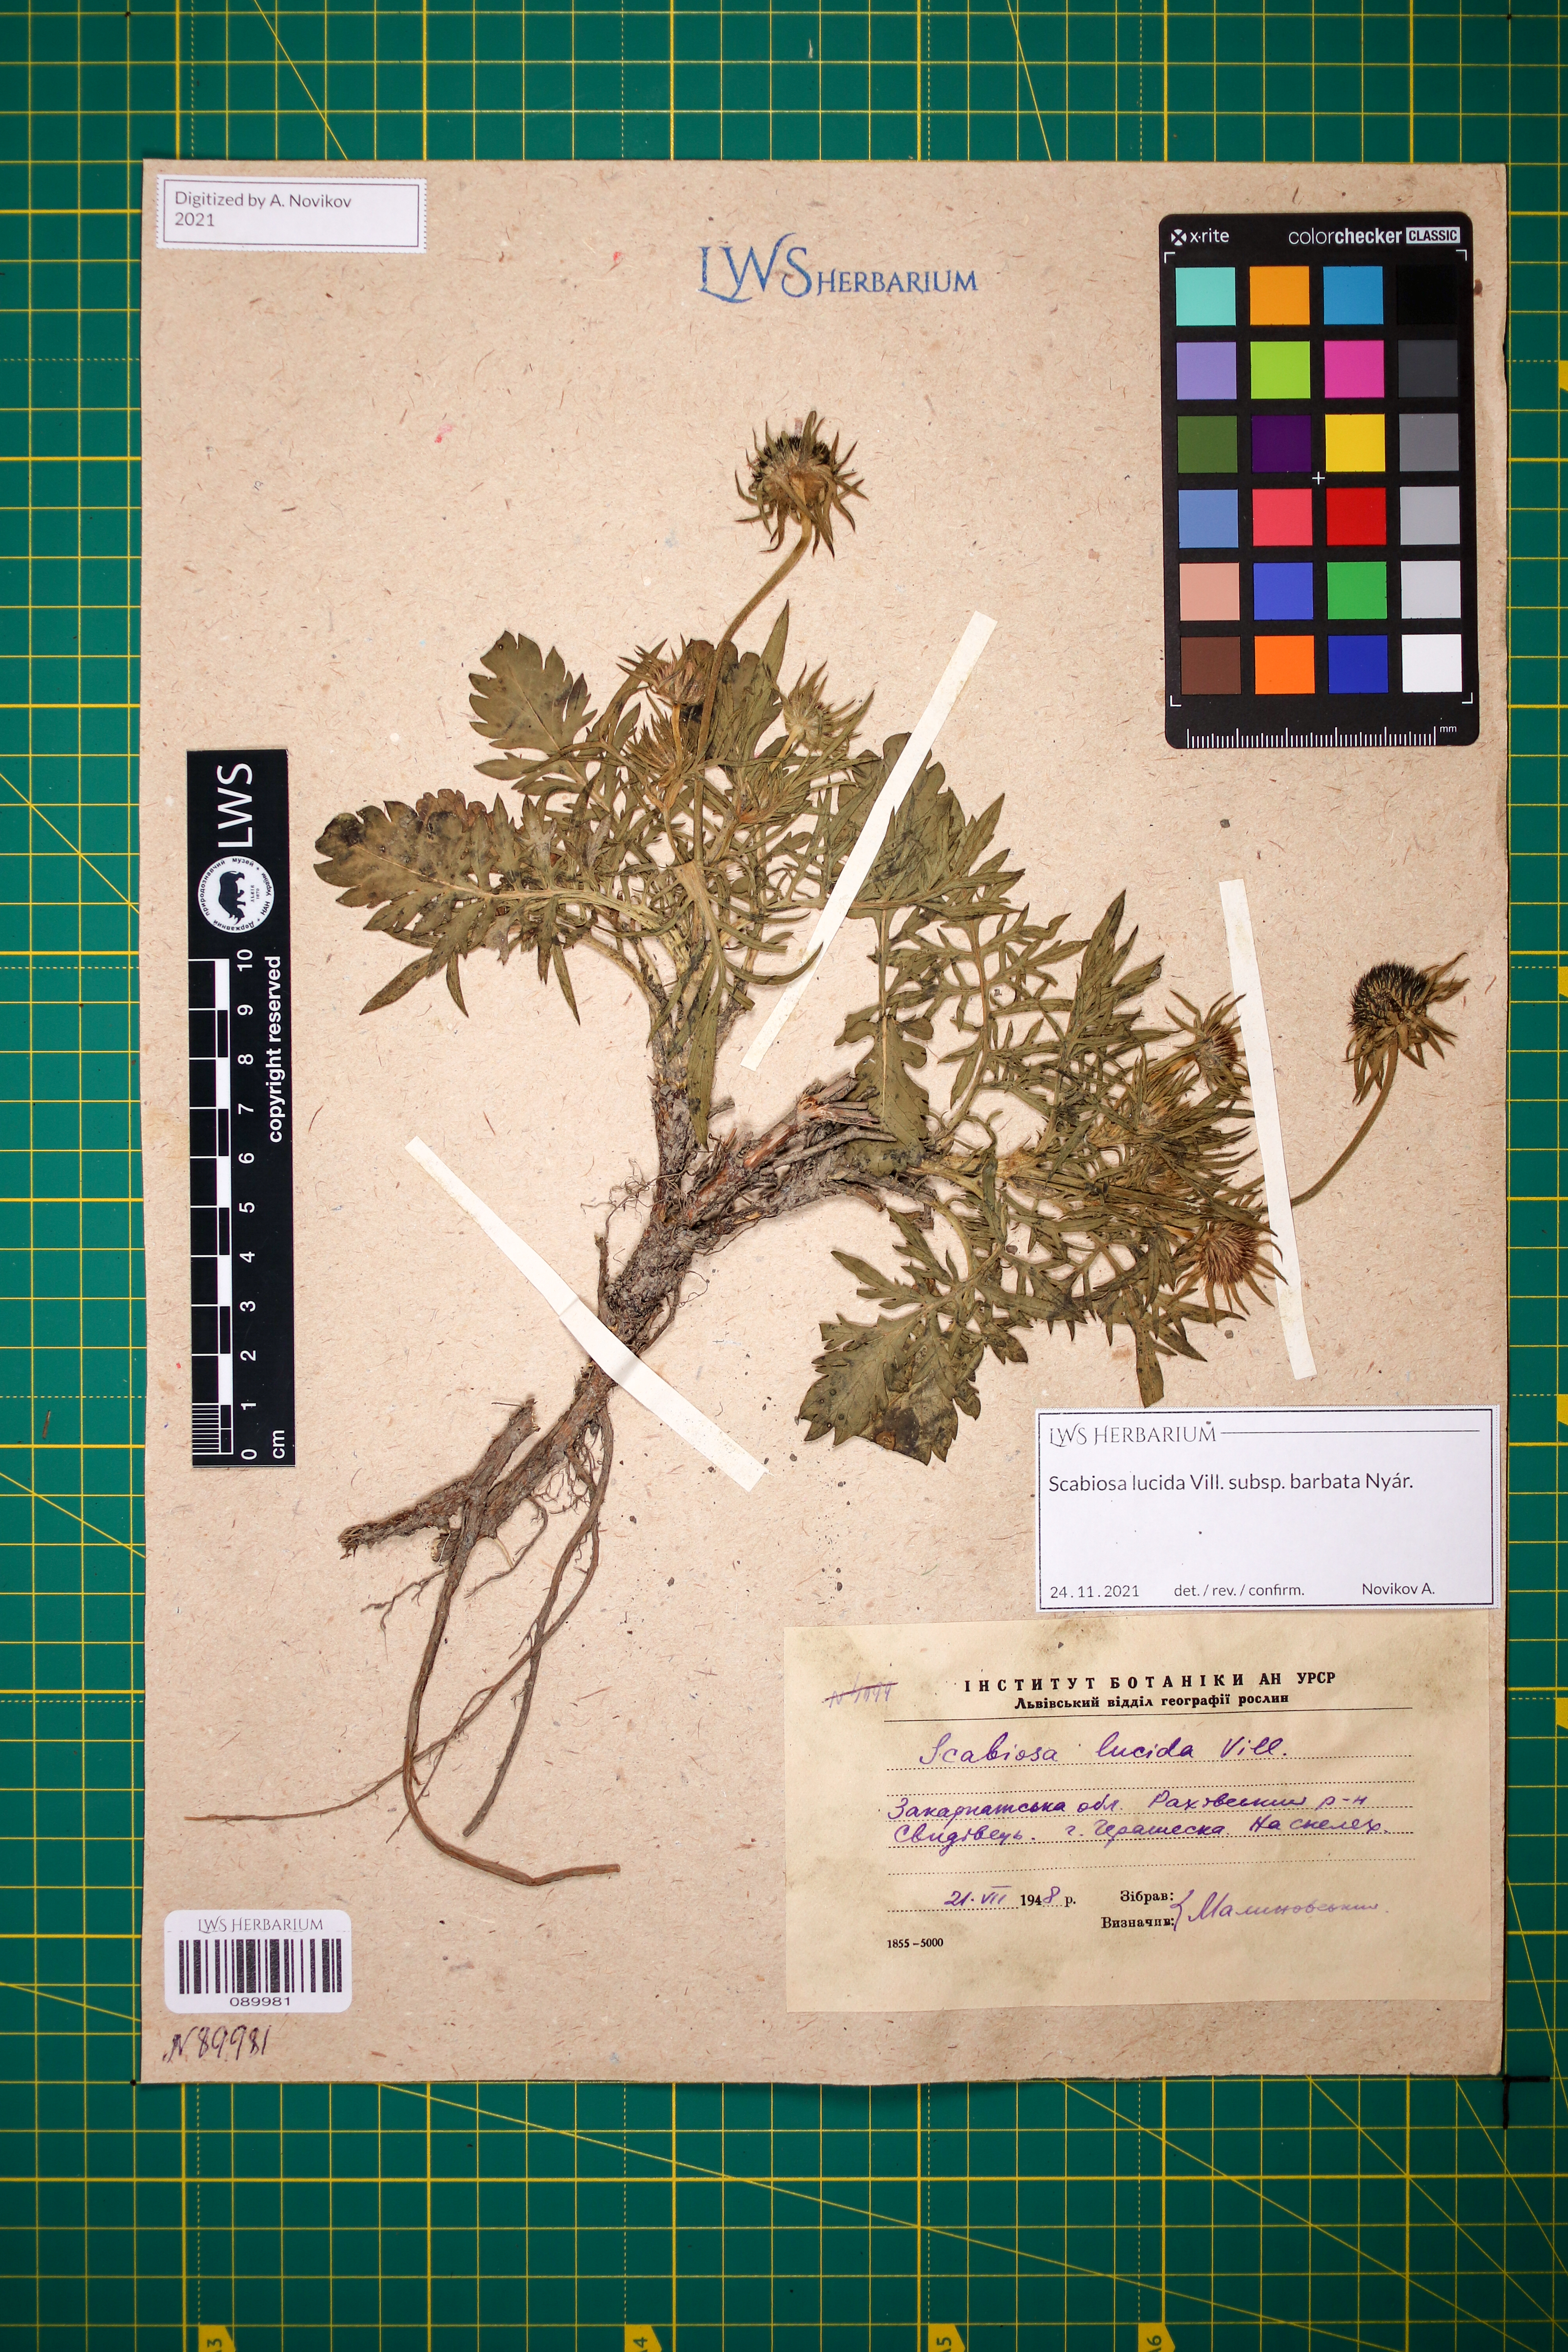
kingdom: Plantae
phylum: Tracheophyta
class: Magnoliopsida
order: Dipsacales
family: Caprifoliaceae
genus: Scabiosa
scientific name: Scabiosa lucida
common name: Shining scabious
